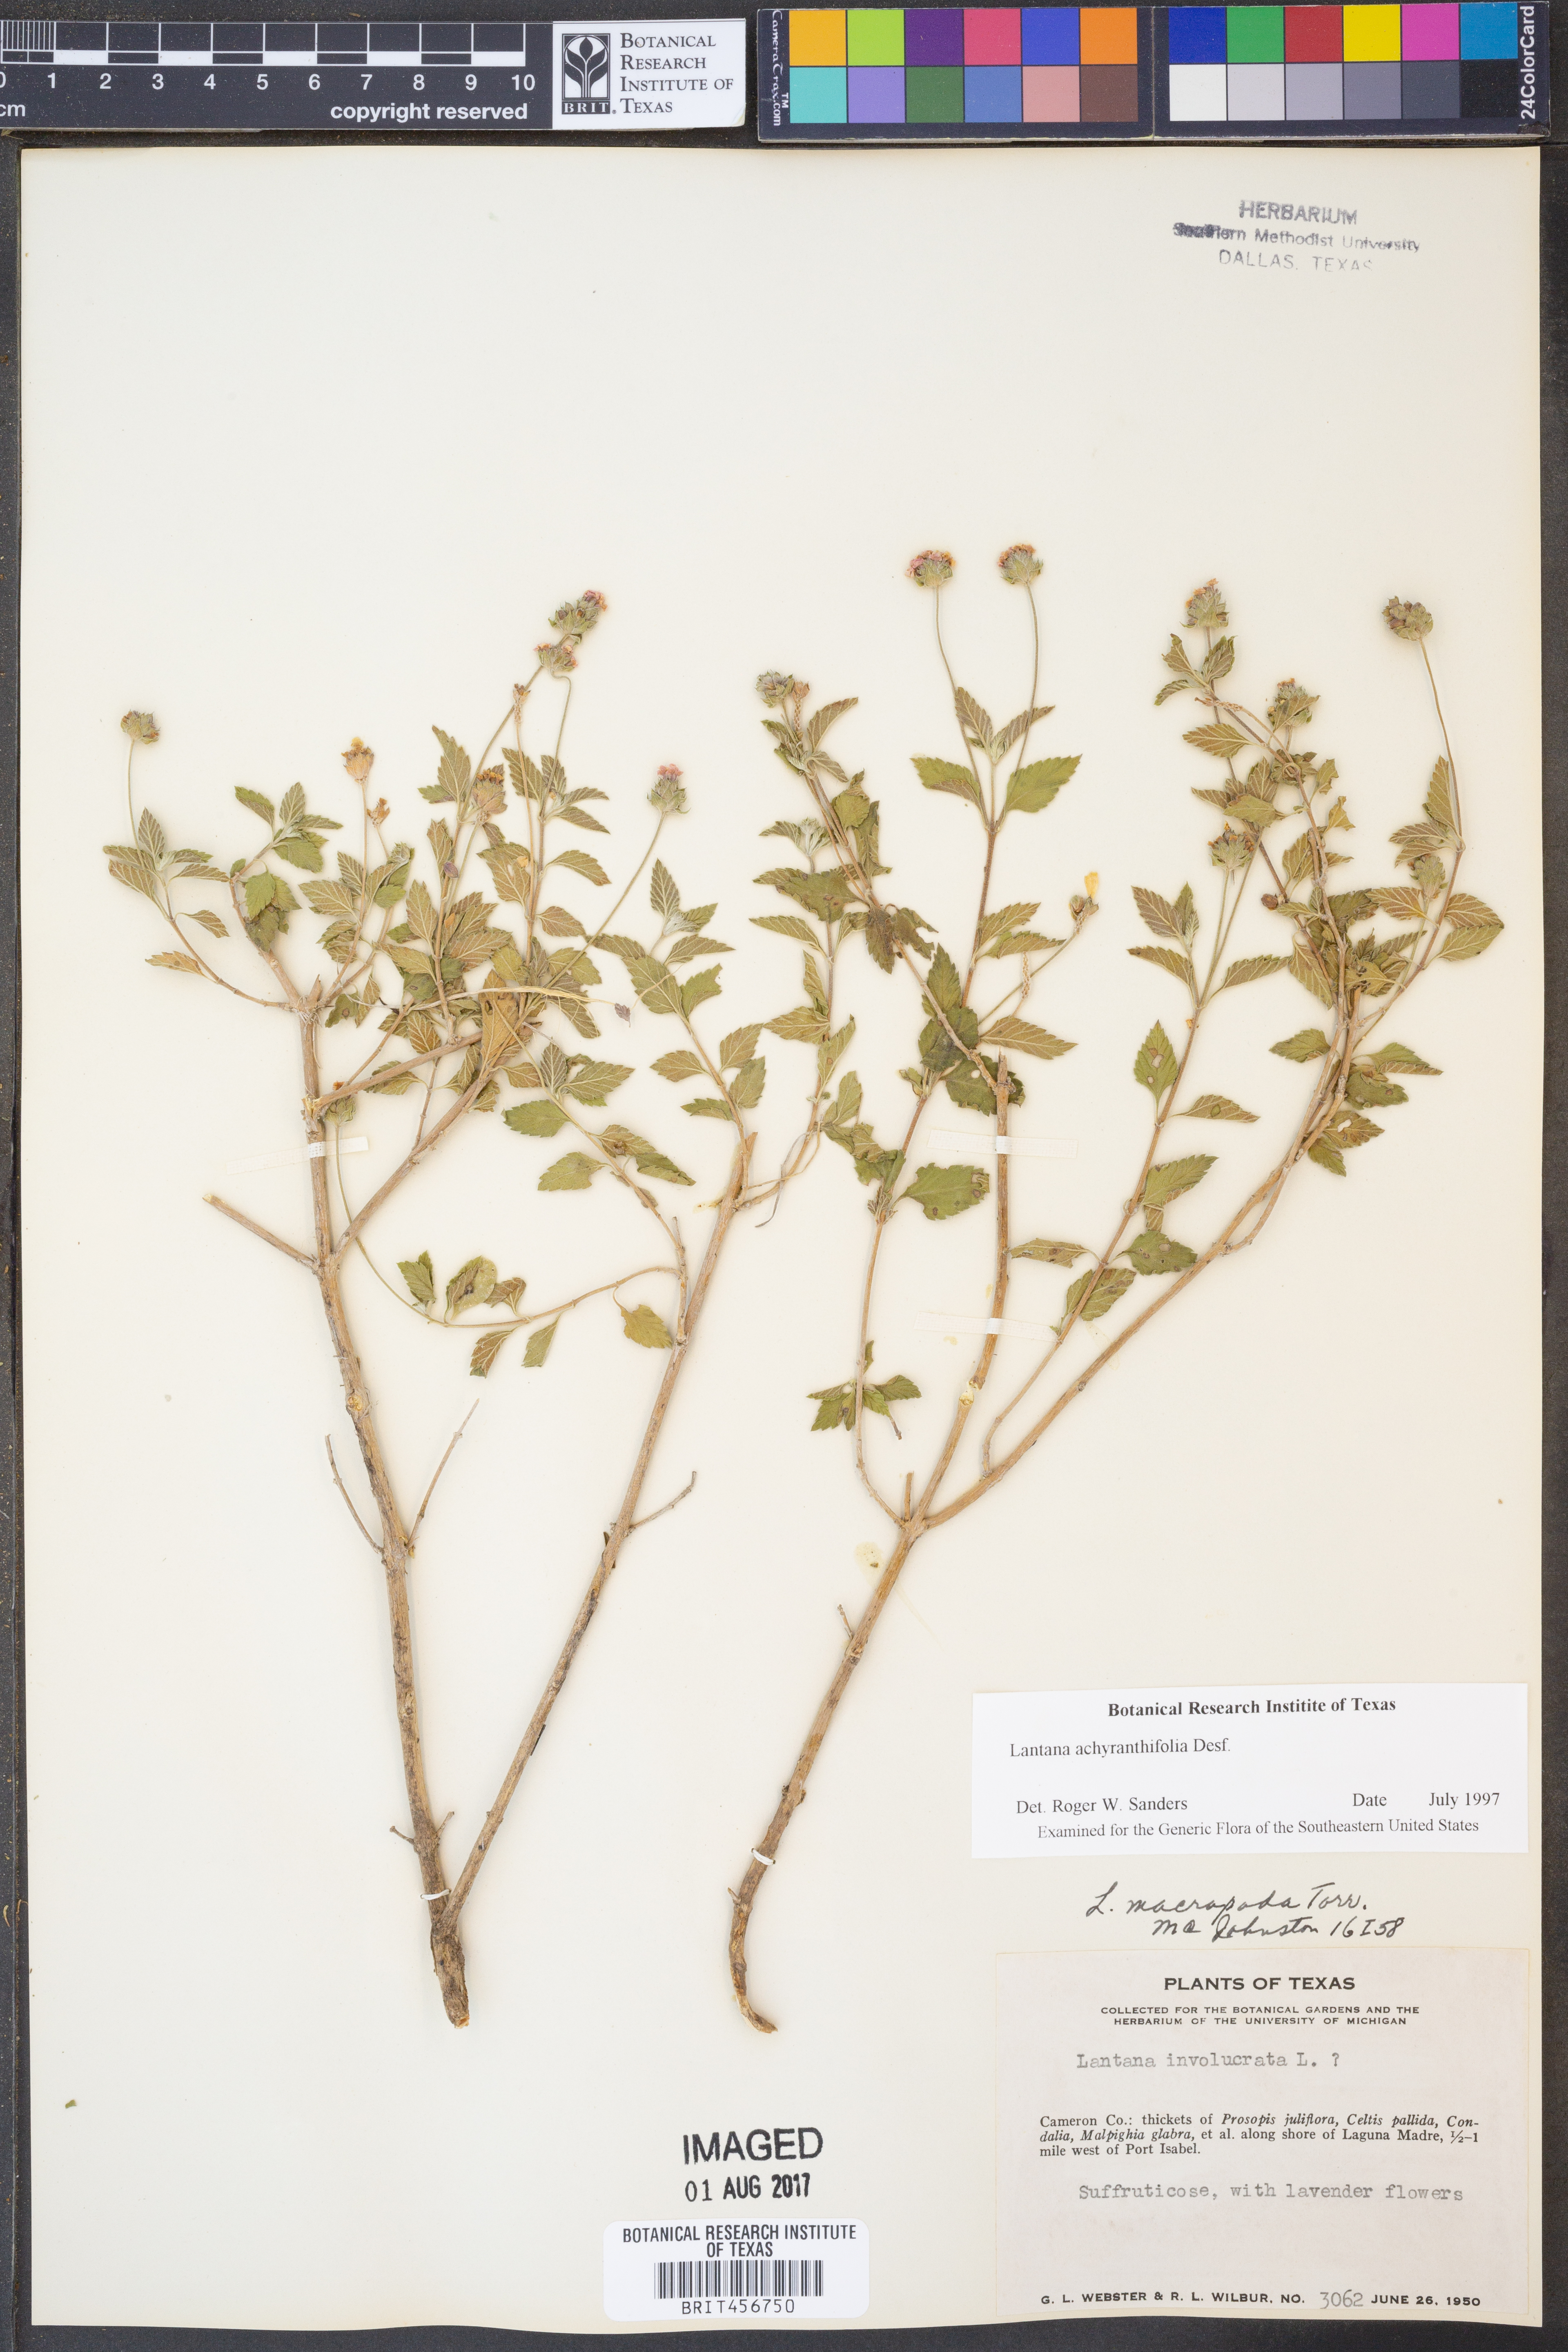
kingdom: Plantae
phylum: Tracheophyta
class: Magnoliopsida
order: Lamiales
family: Verbenaceae
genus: Lantana
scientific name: Lantana achyranthifolia
